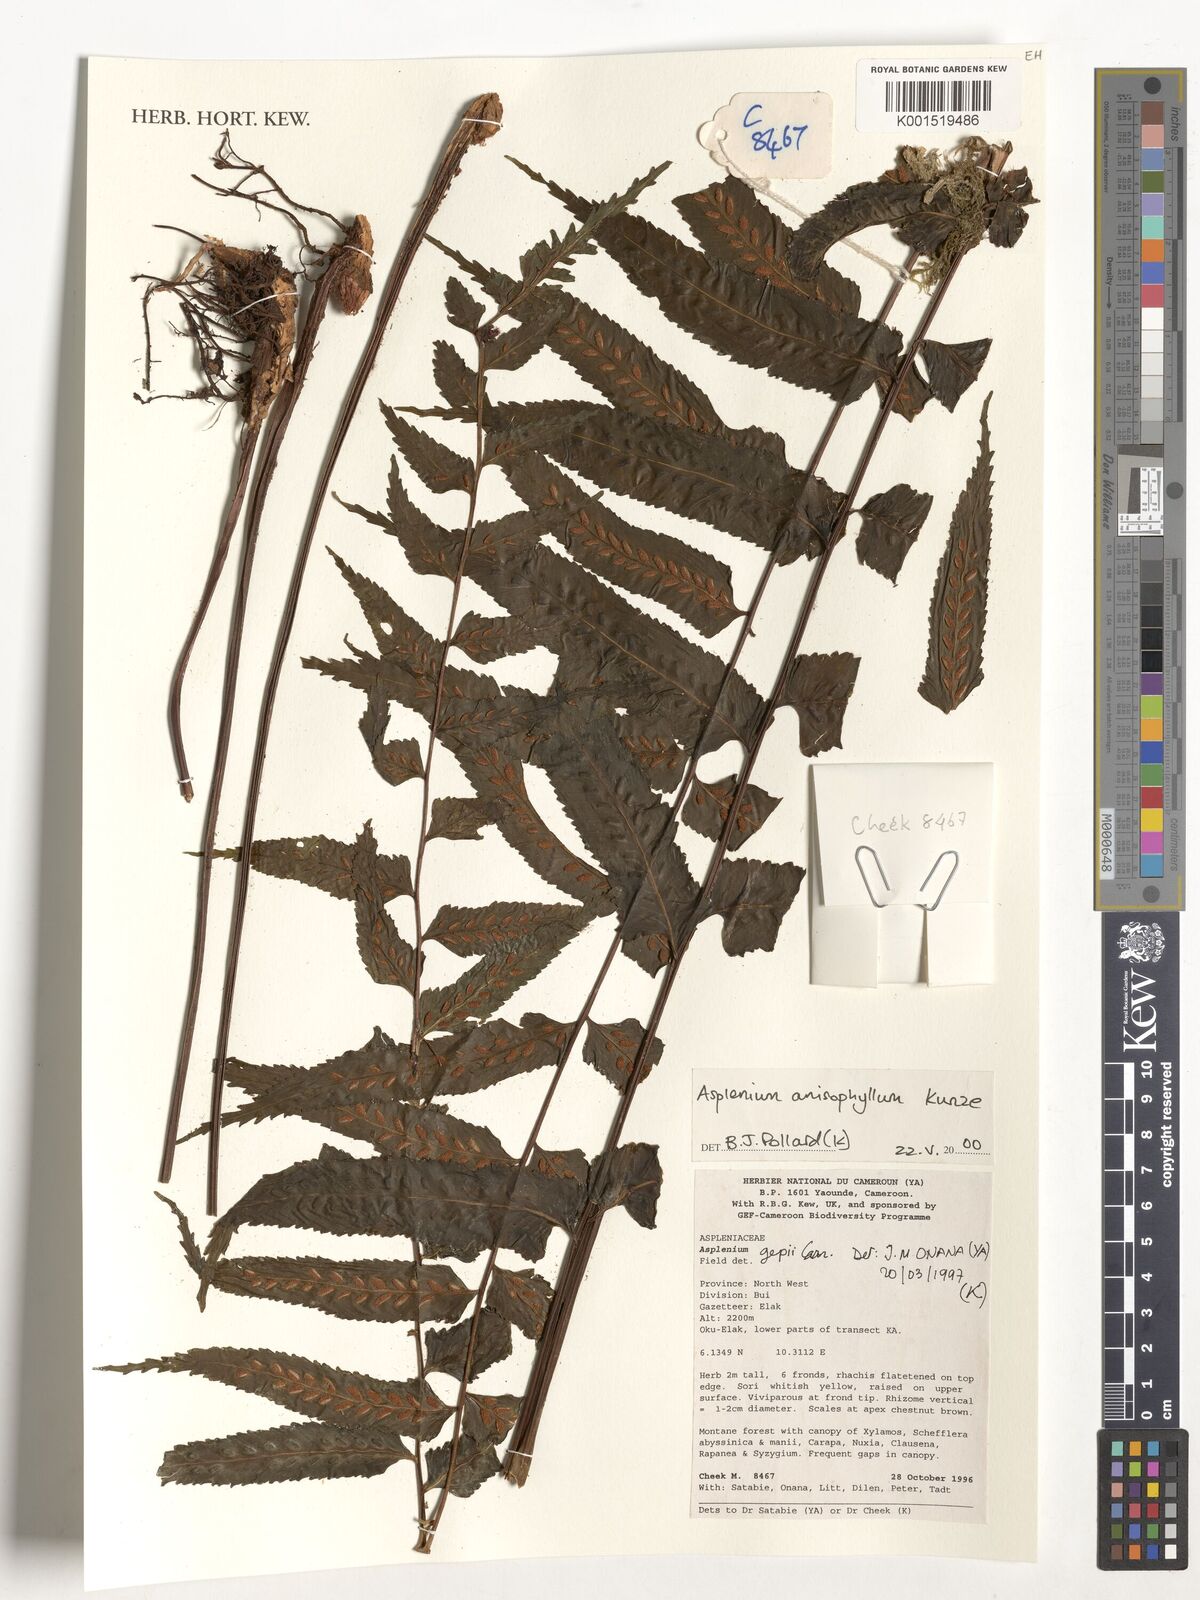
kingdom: Plantae
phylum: Tracheophyta
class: Polypodiopsida
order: Polypodiales
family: Aspleniaceae
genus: Asplenium
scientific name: Asplenium anisophyllum
